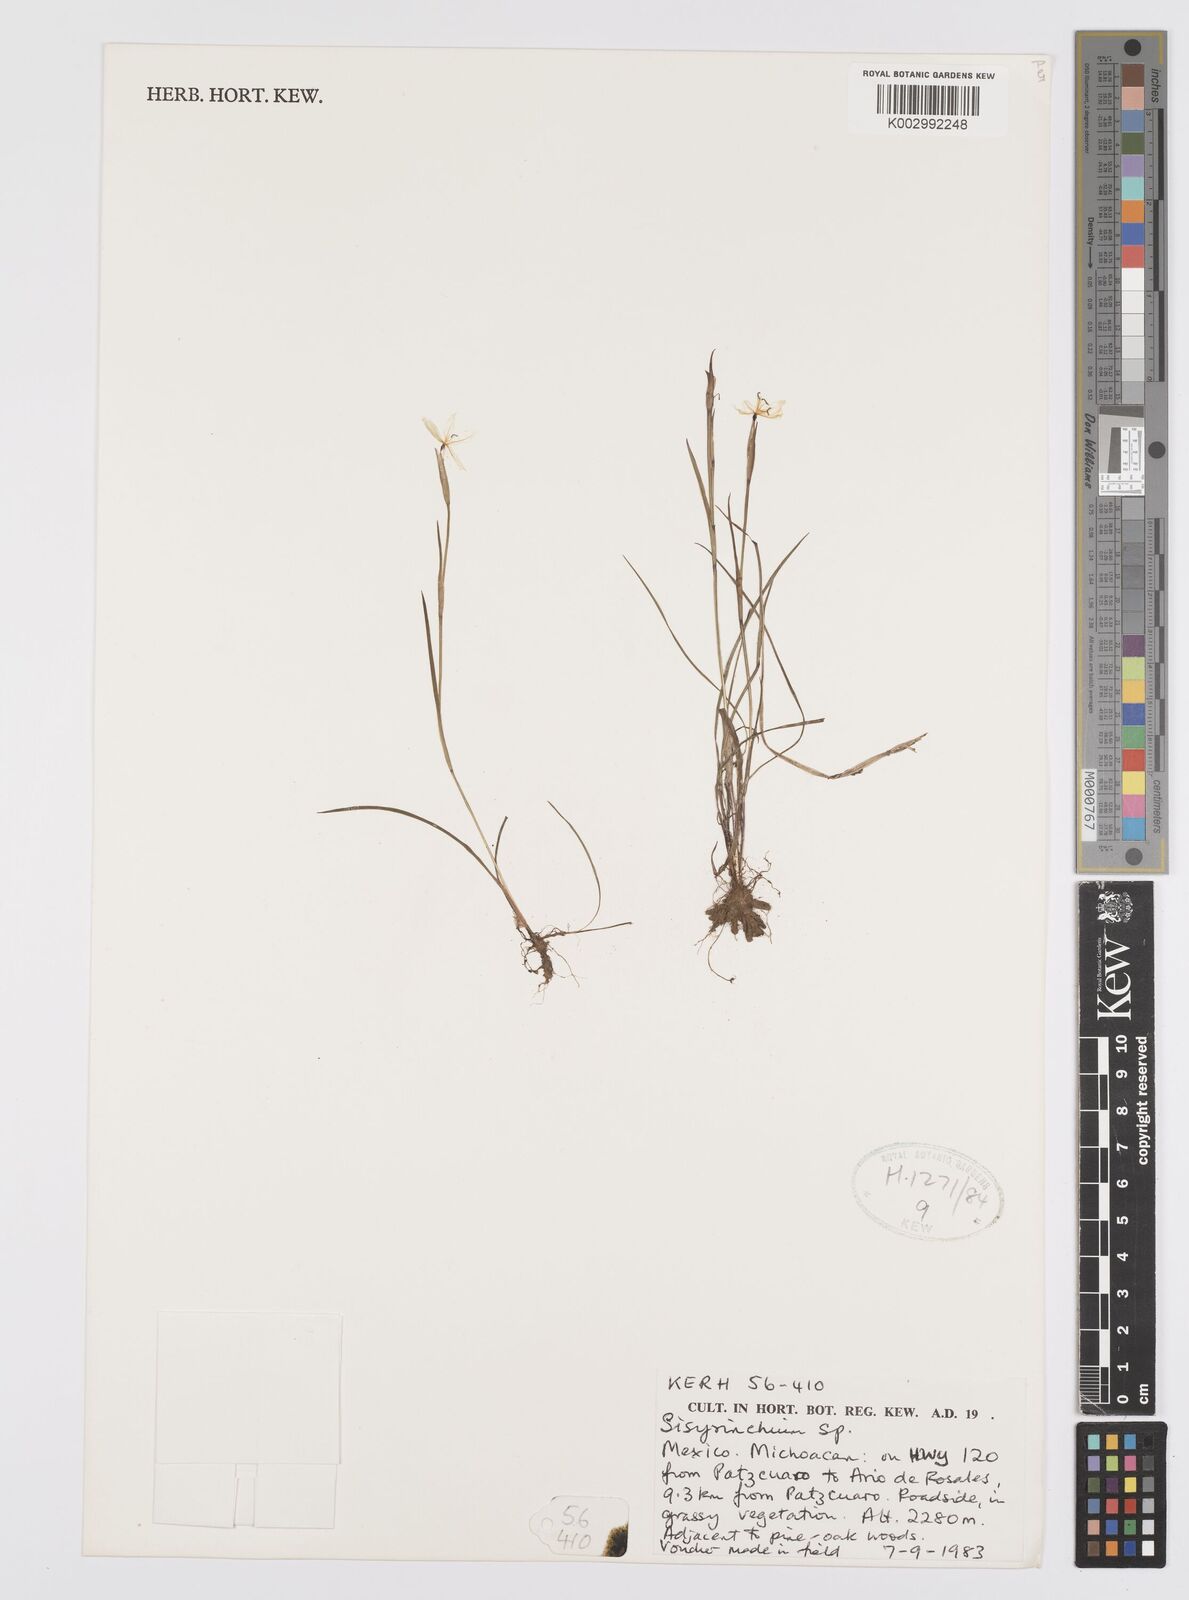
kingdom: Plantae
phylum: Tracheophyta
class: Liliopsida
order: Asparagales
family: Iridaceae
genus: Sisyrinchium
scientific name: Sisyrinchium
